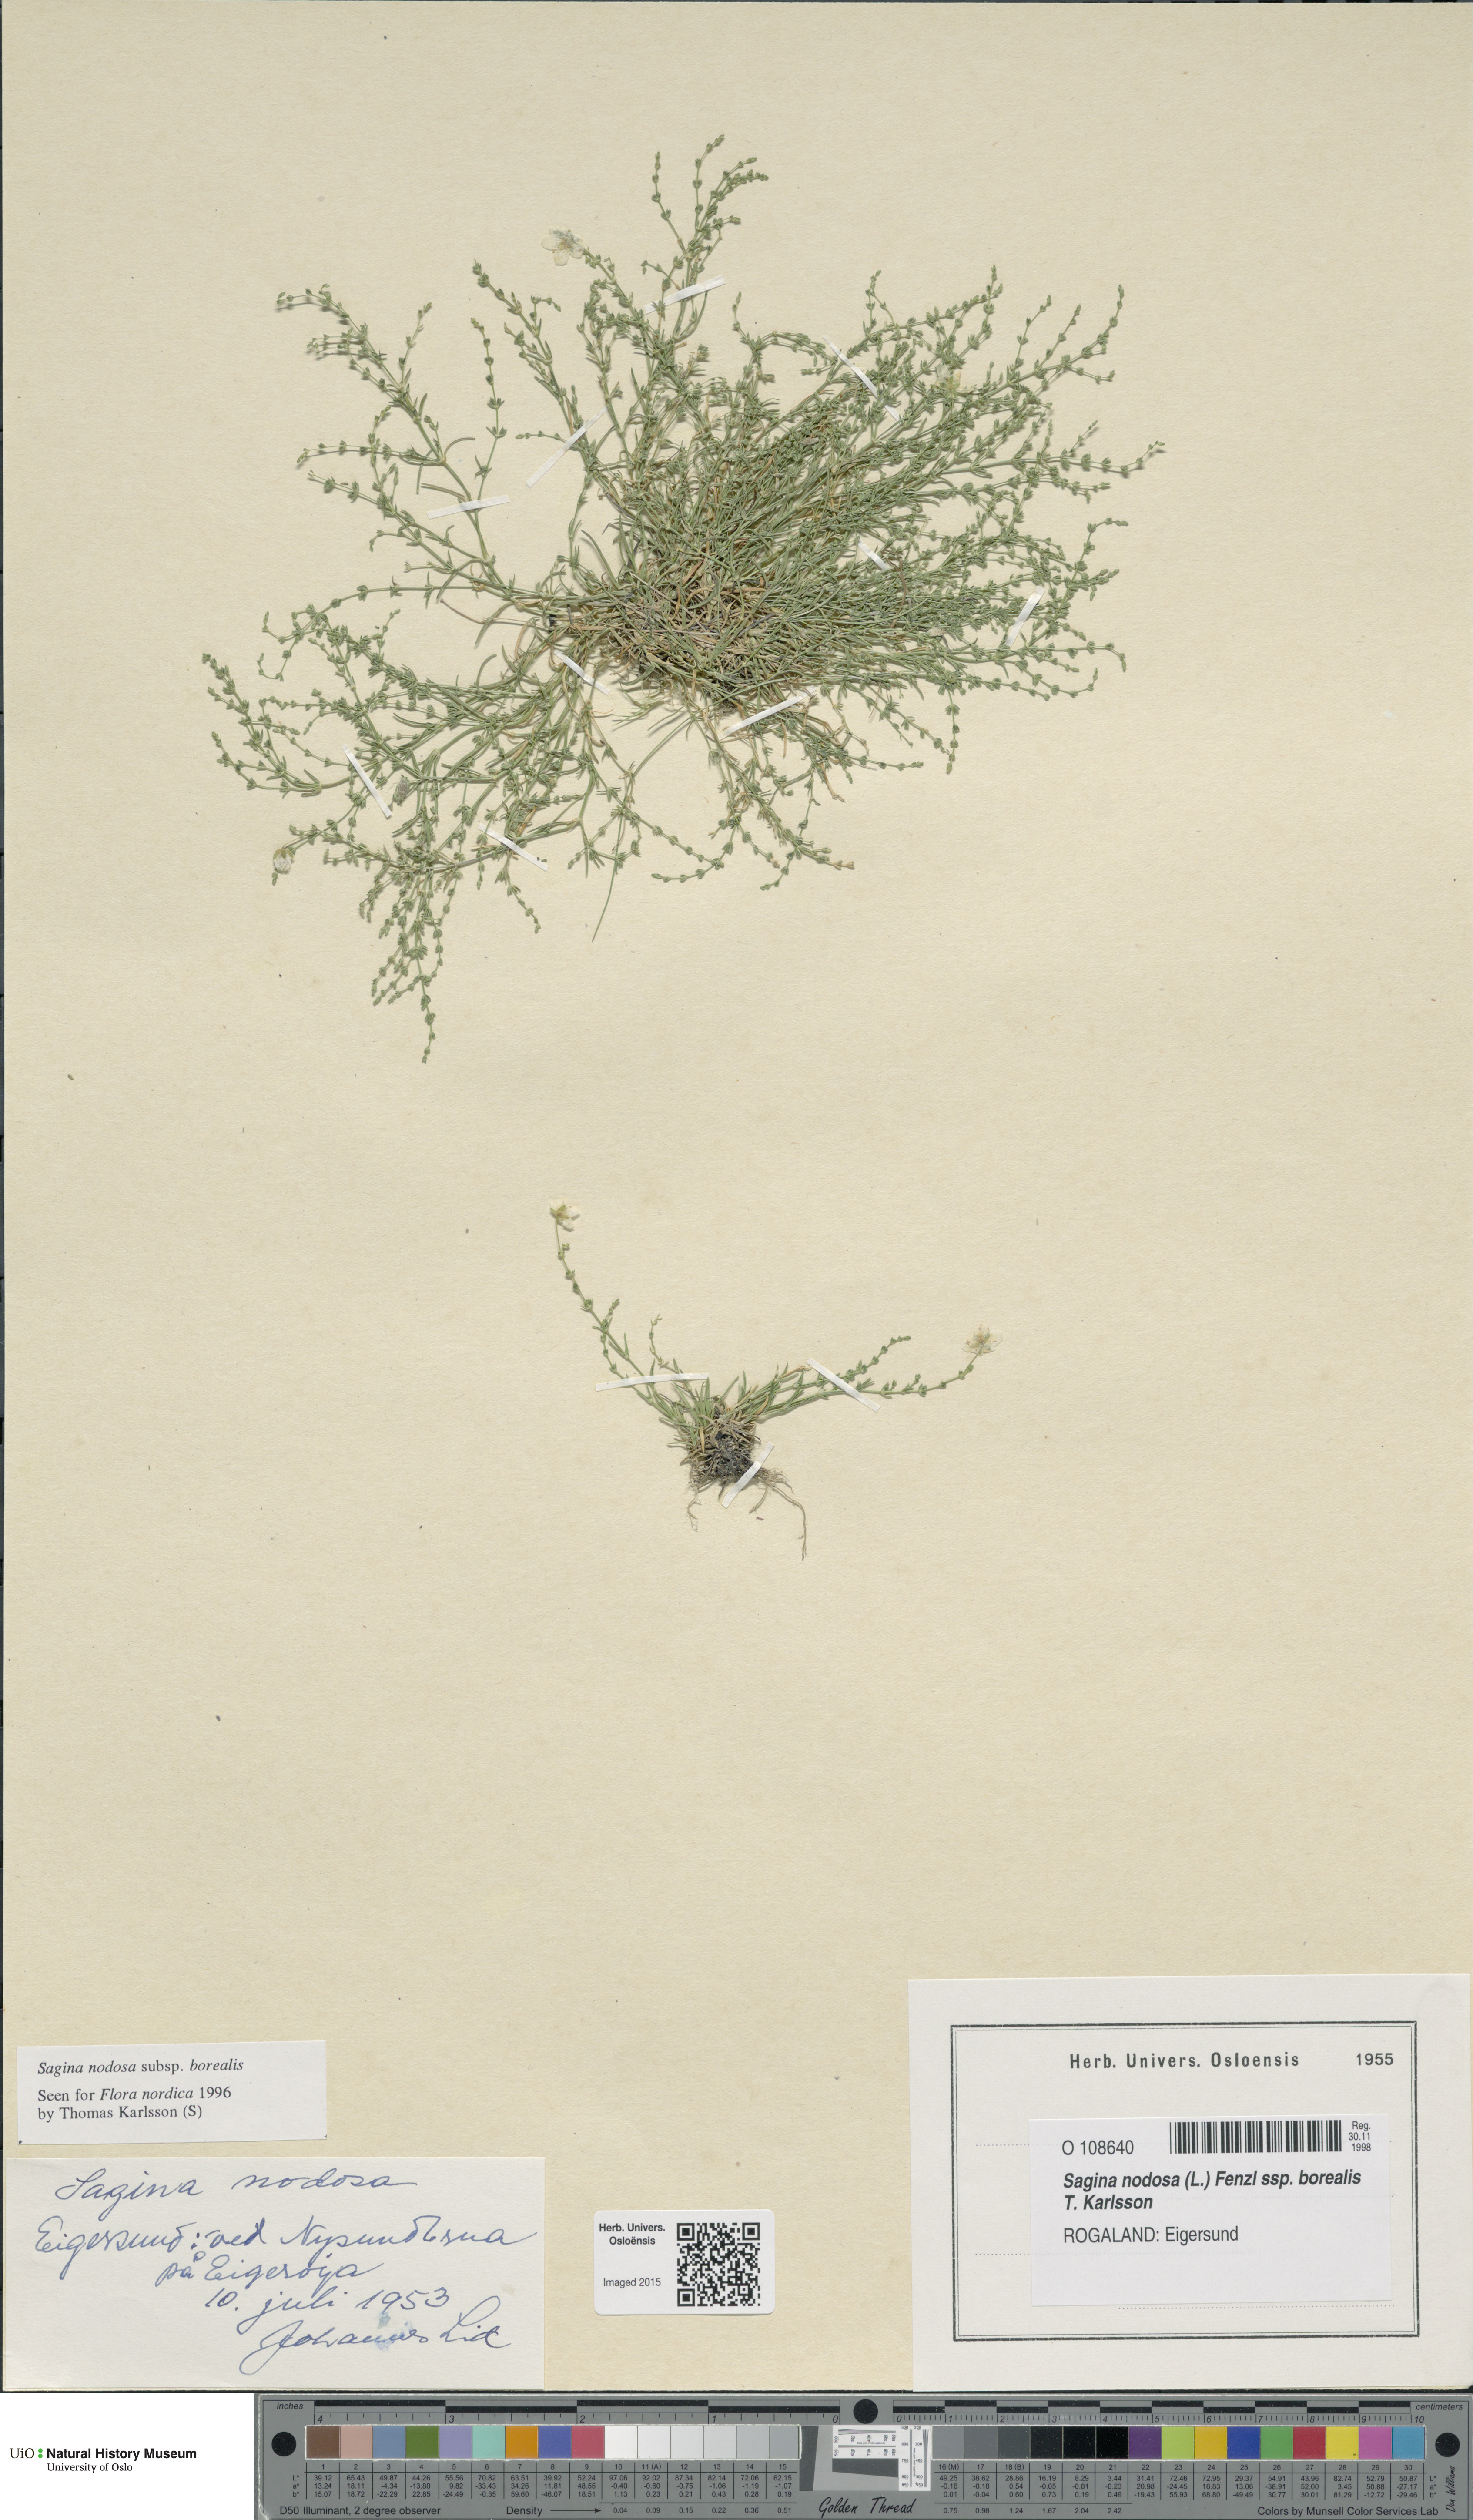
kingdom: Plantae
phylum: Tracheophyta
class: Magnoliopsida
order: Caryophyllales
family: Caryophyllaceae
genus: Sagina
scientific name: Sagina nodosa
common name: Knotted pearlwort
